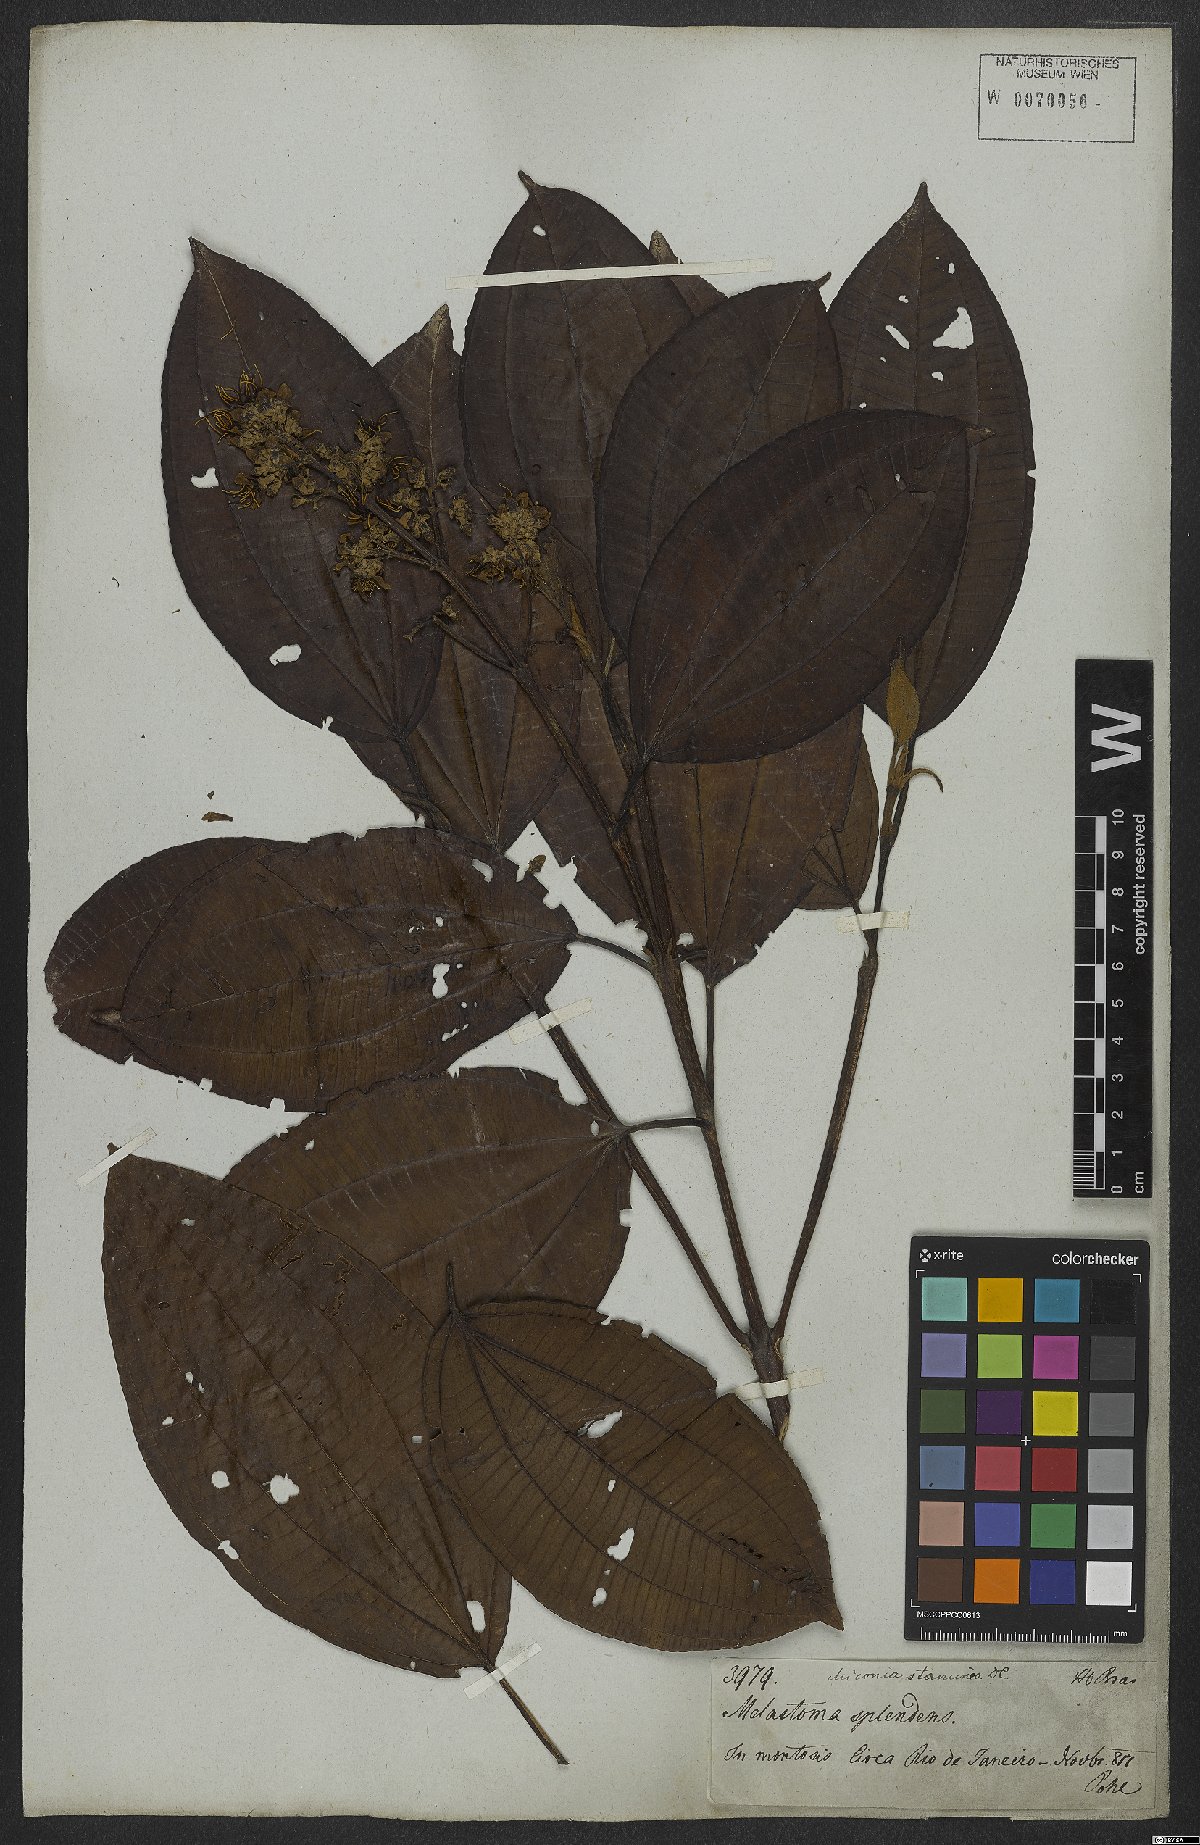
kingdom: Plantae
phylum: Tracheophyta
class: Magnoliopsida
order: Myrtales
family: Melastomataceae
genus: Miconia
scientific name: Miconia staminea
